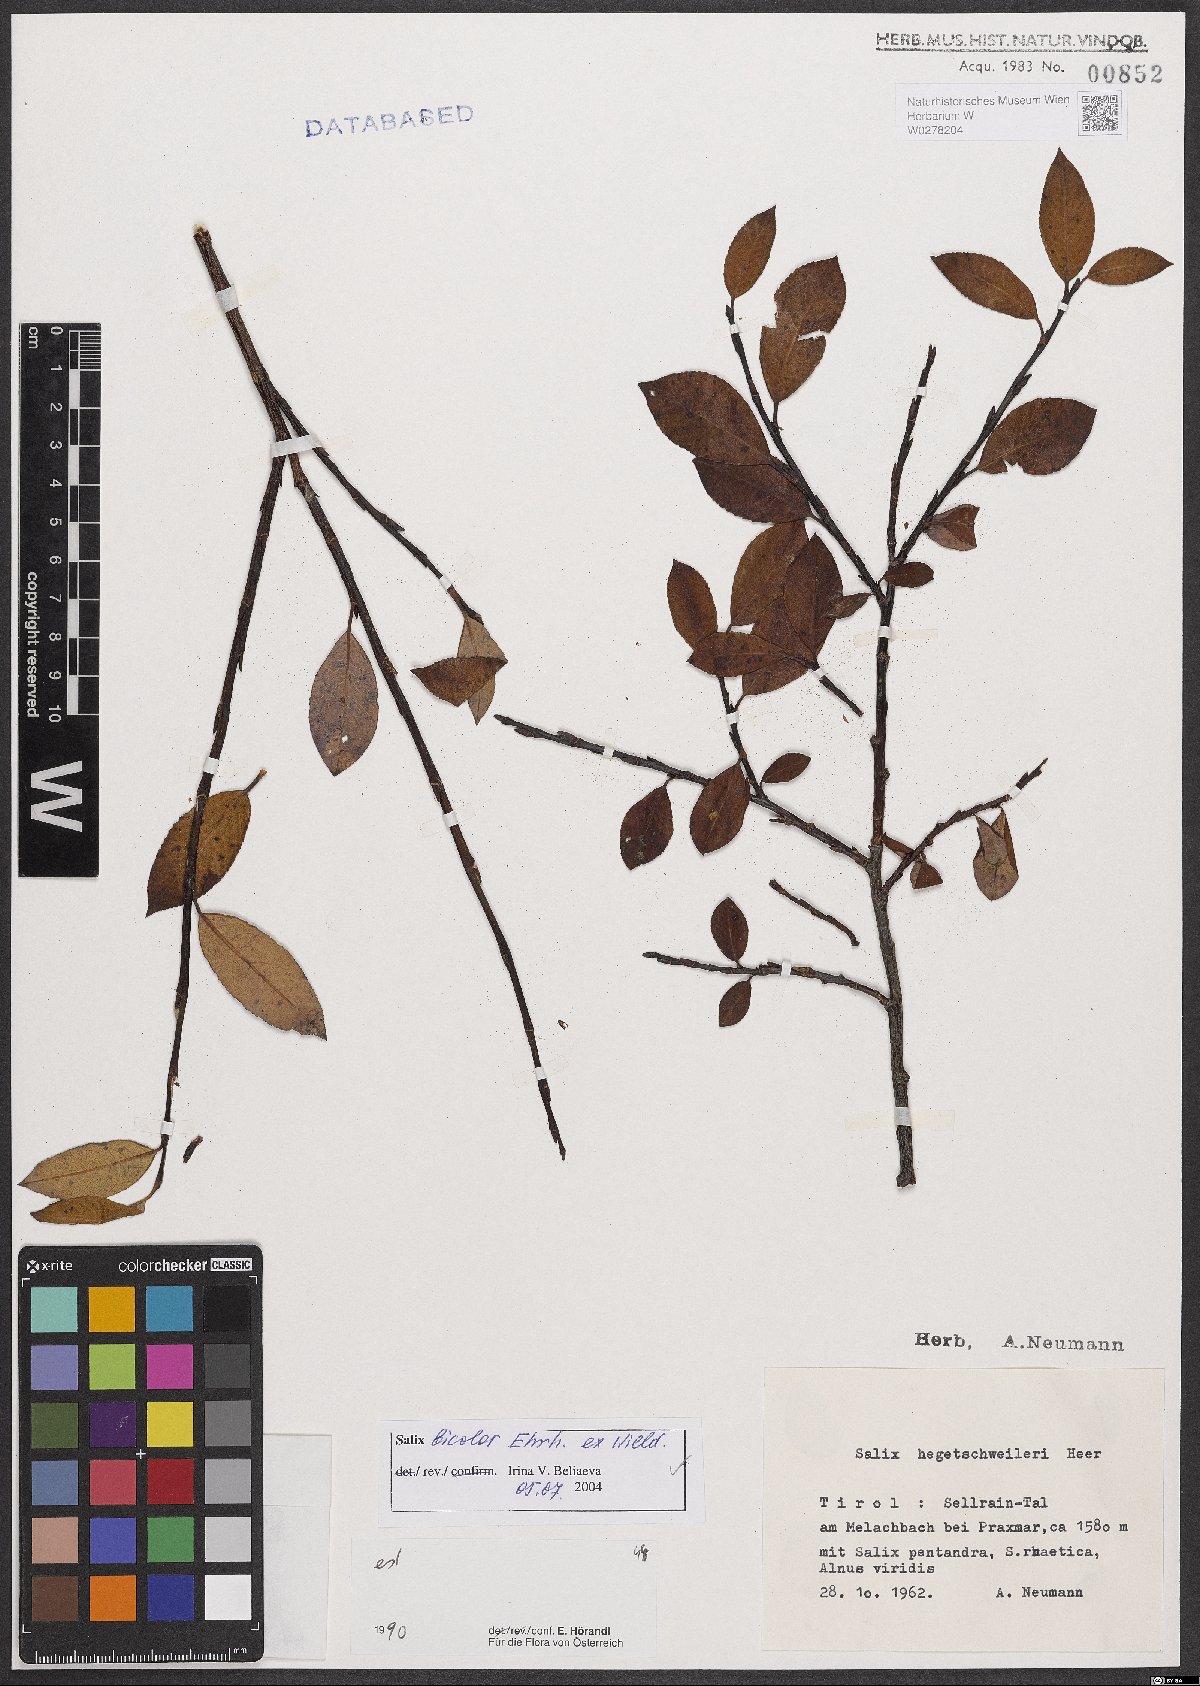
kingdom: Plantae
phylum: Tracheophyta
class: Magnoliopsida
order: Malpighiales
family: Salicaceae
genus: Salix
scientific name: Salix bicolor
